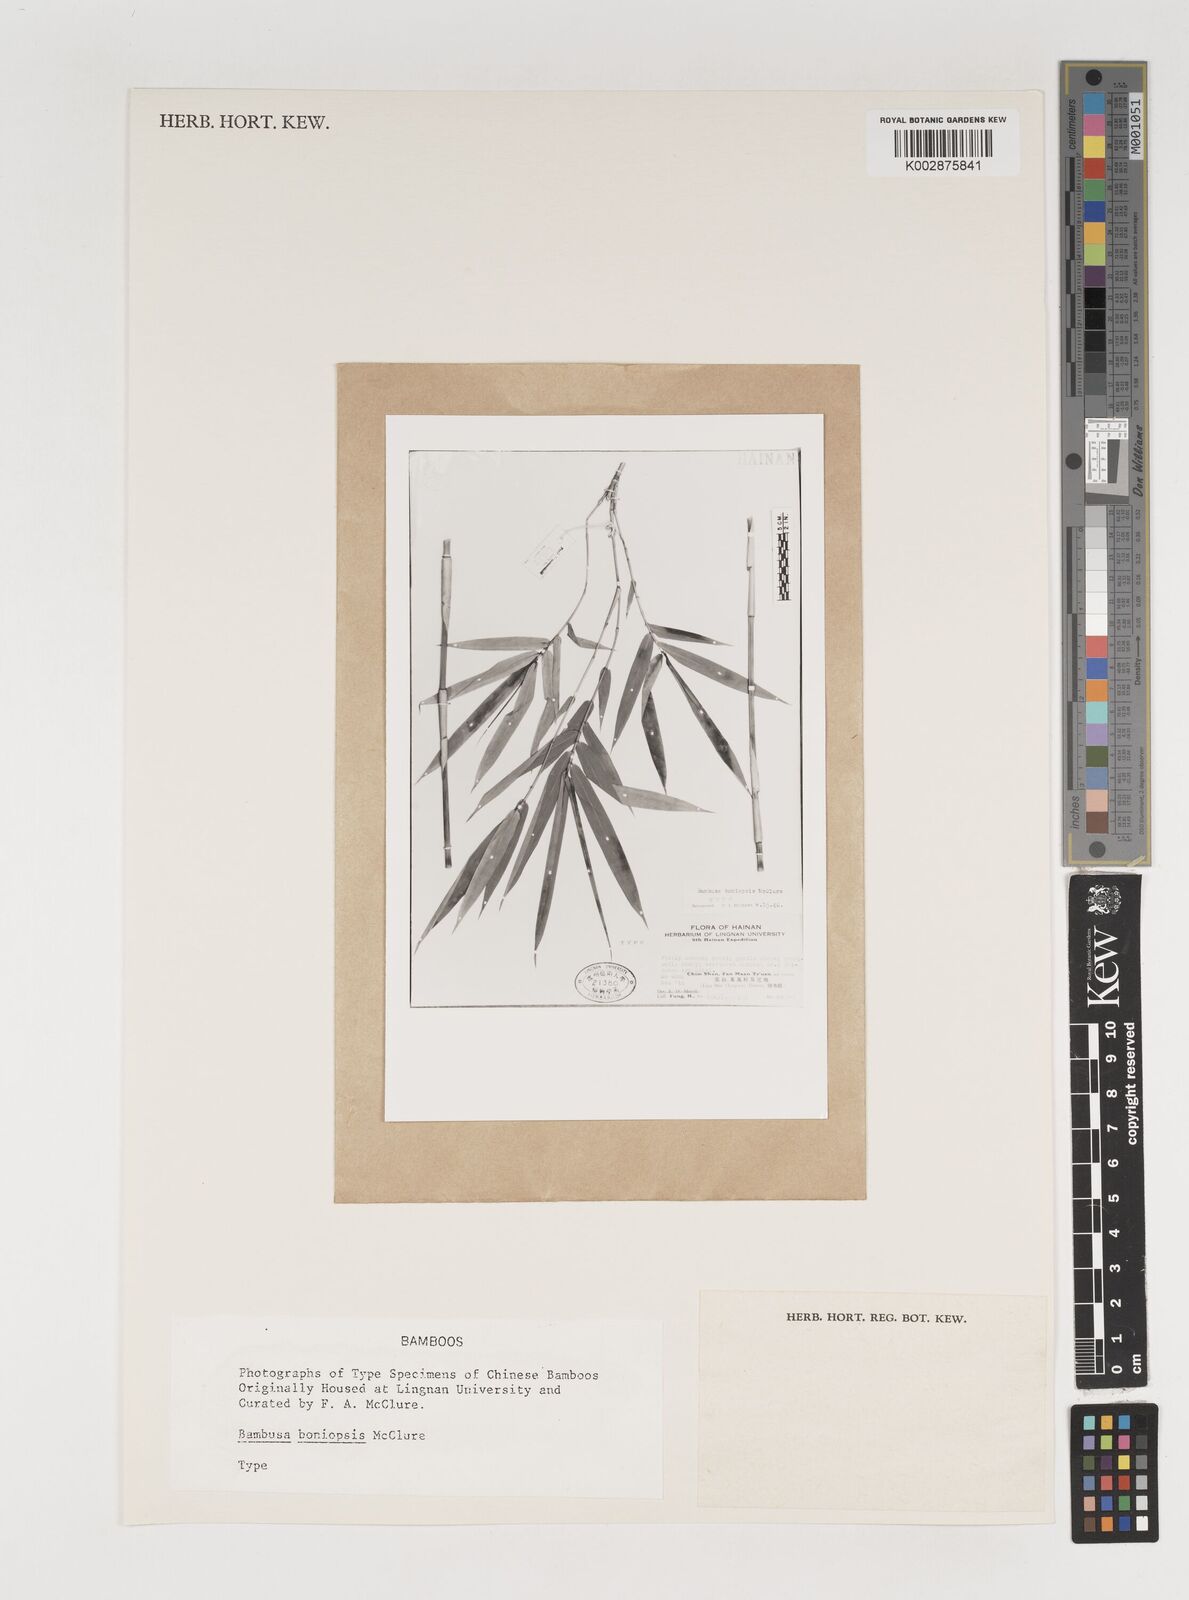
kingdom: Plantae
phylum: Tracheophyta
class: Liliopsida
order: Poales
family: Poaceae
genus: Bambusa
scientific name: Bambusa boniopsis
